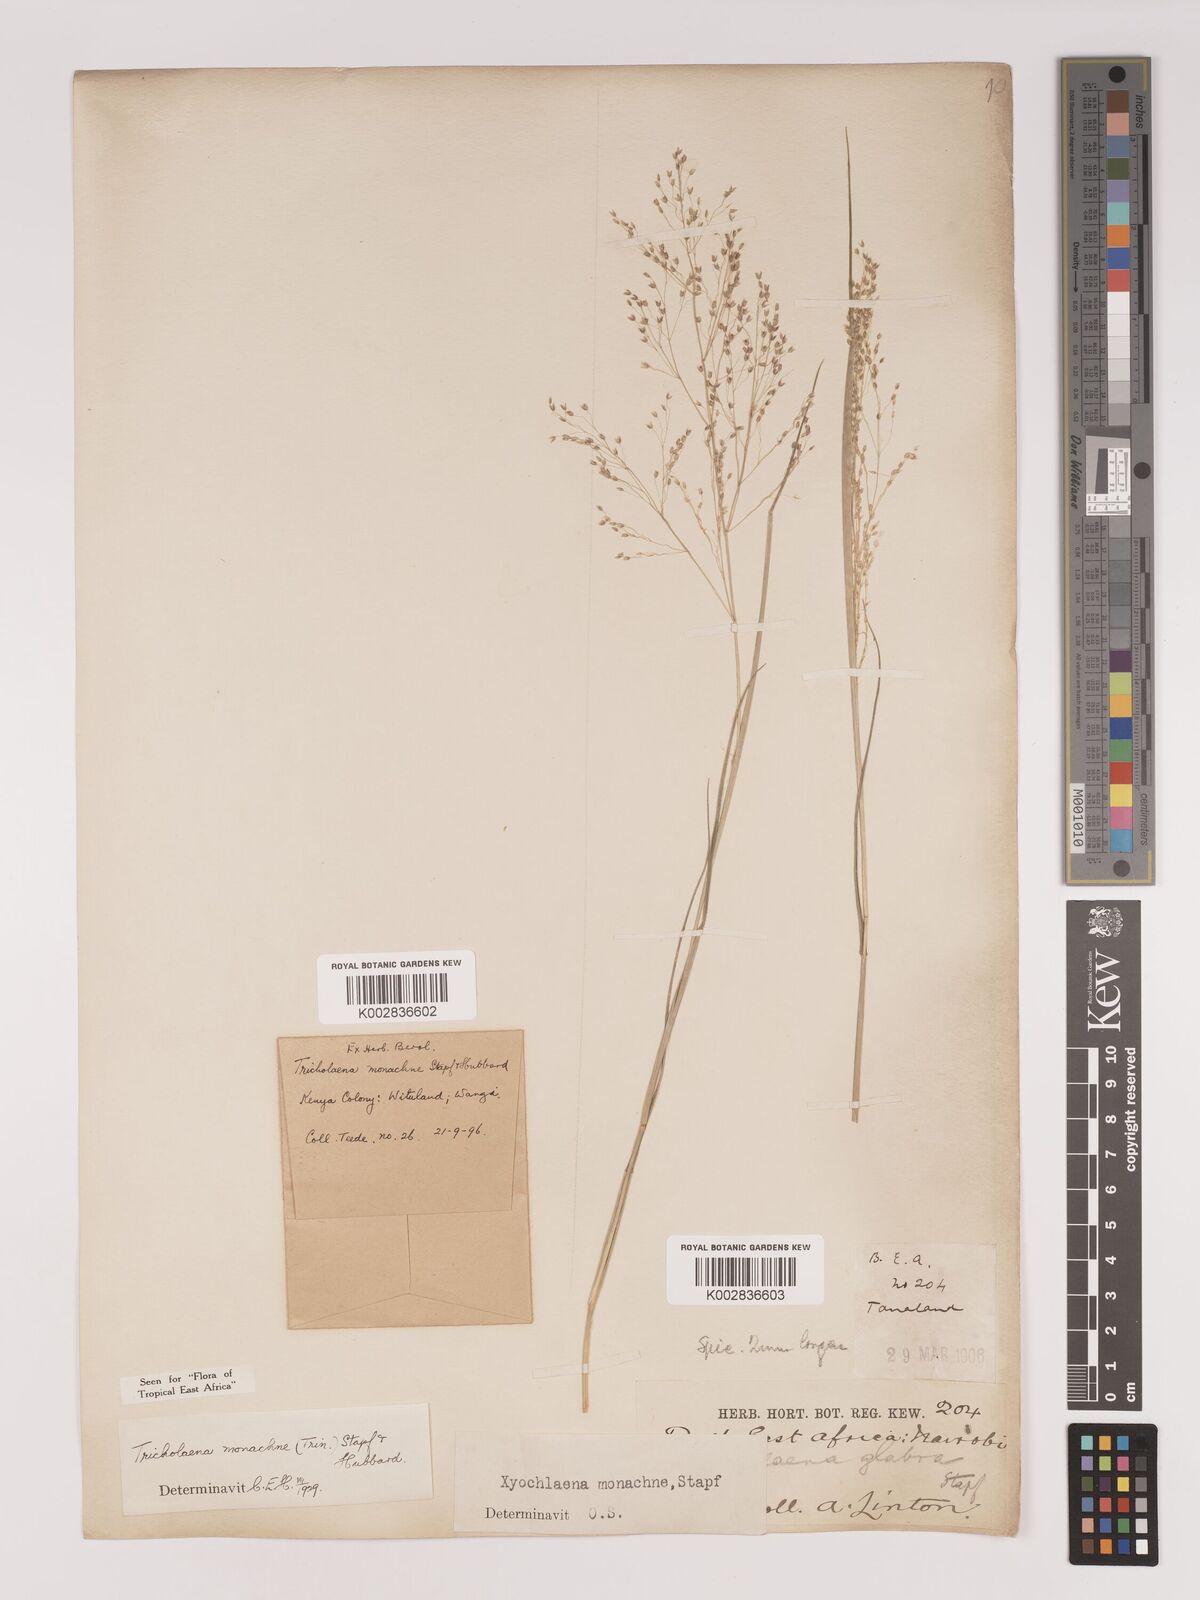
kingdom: Plantae
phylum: Tracheophyta
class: Liliopsida
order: Poales
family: Poaceae
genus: Tricholaena
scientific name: Tricholaena monachne
